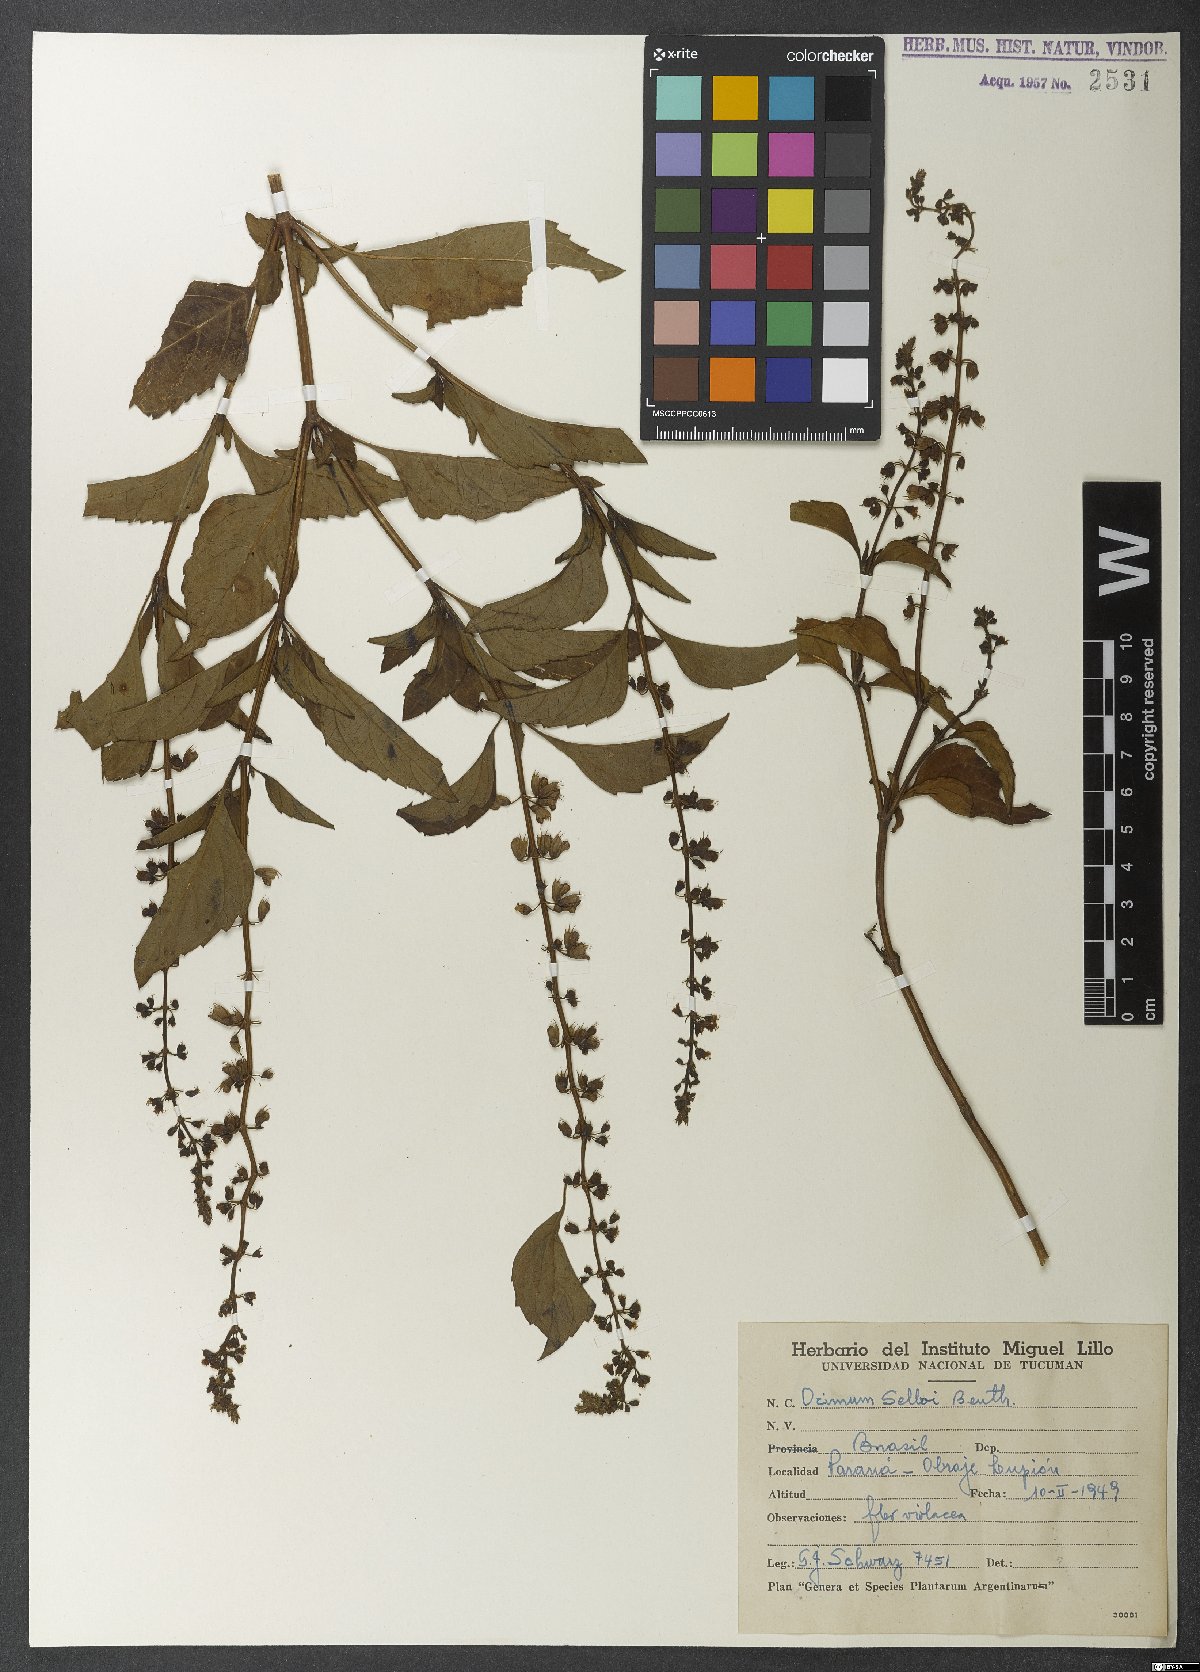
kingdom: Plantae
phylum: Tracheophyta
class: Magnoliopsida
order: Lamiales
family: Lamiaceae
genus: Ocimum
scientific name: Ocimum
